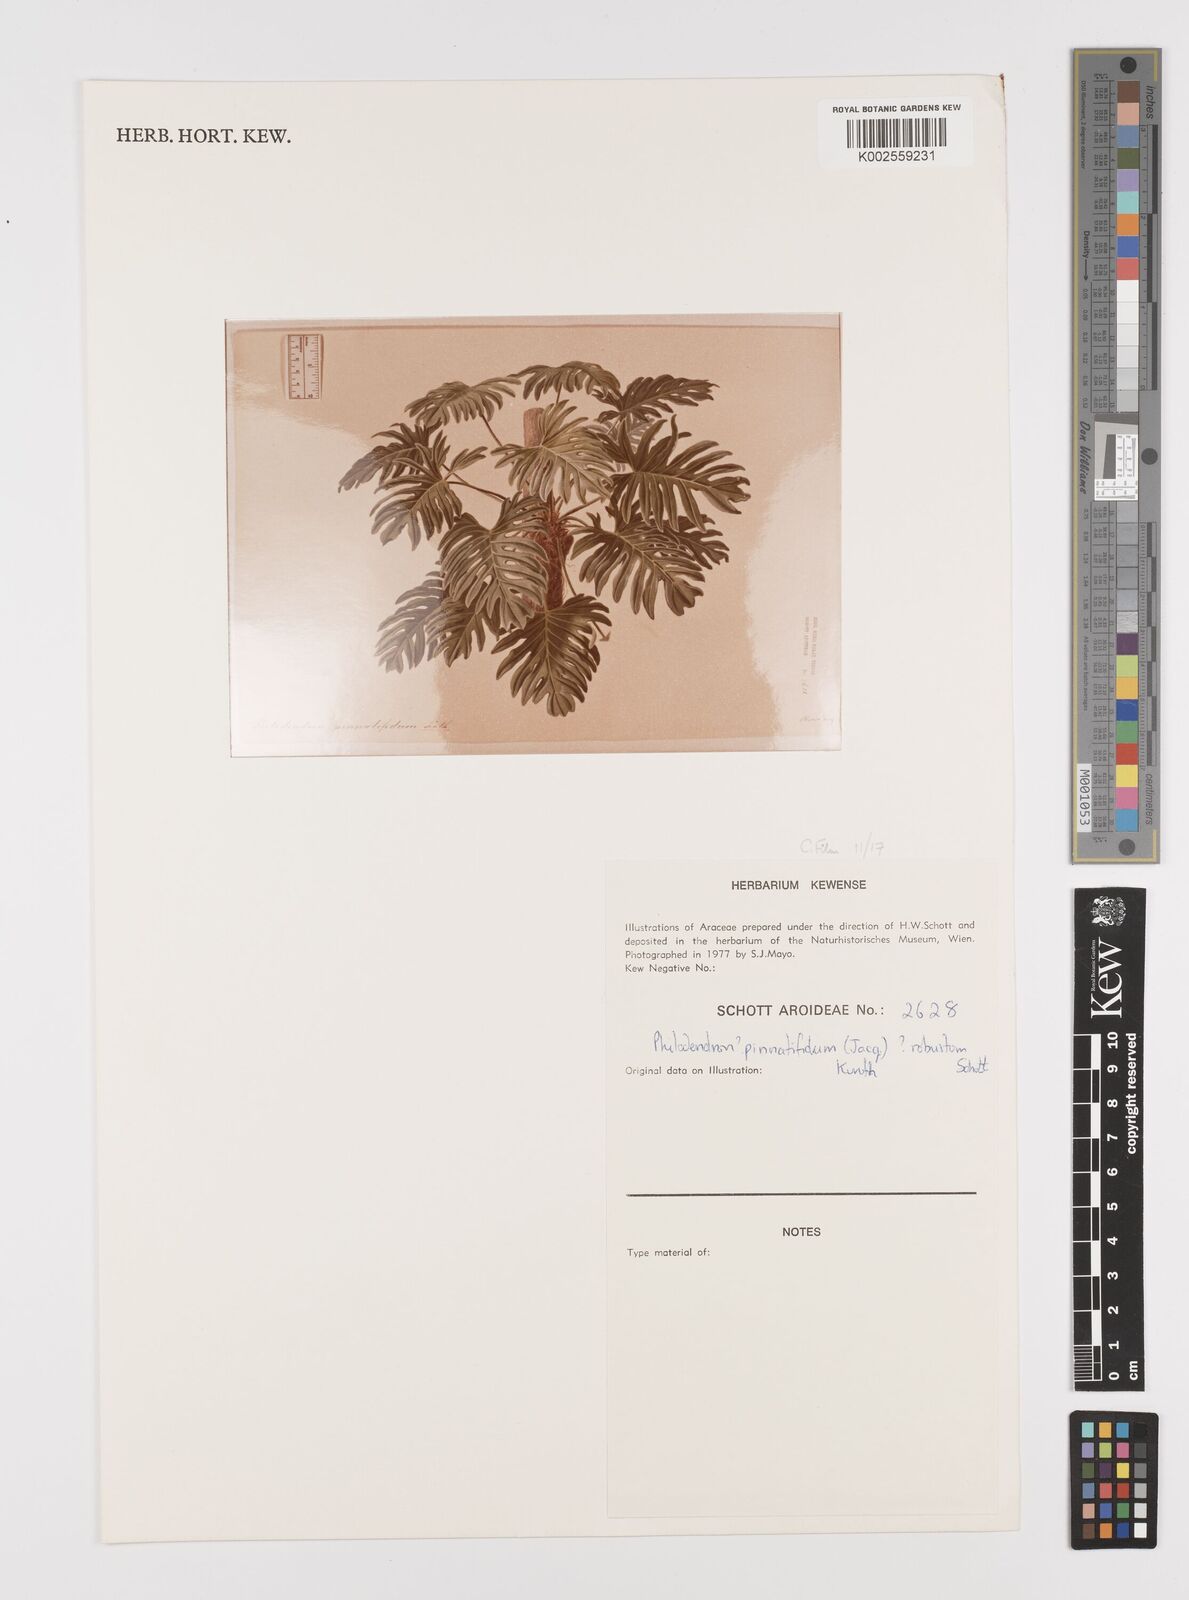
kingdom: Plantae
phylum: Tracheophyta
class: Liliopsida
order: Alismatales
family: Araceae
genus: Philodendron
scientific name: Philodendron pinnatifidum
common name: Comb-leaf philodendron
